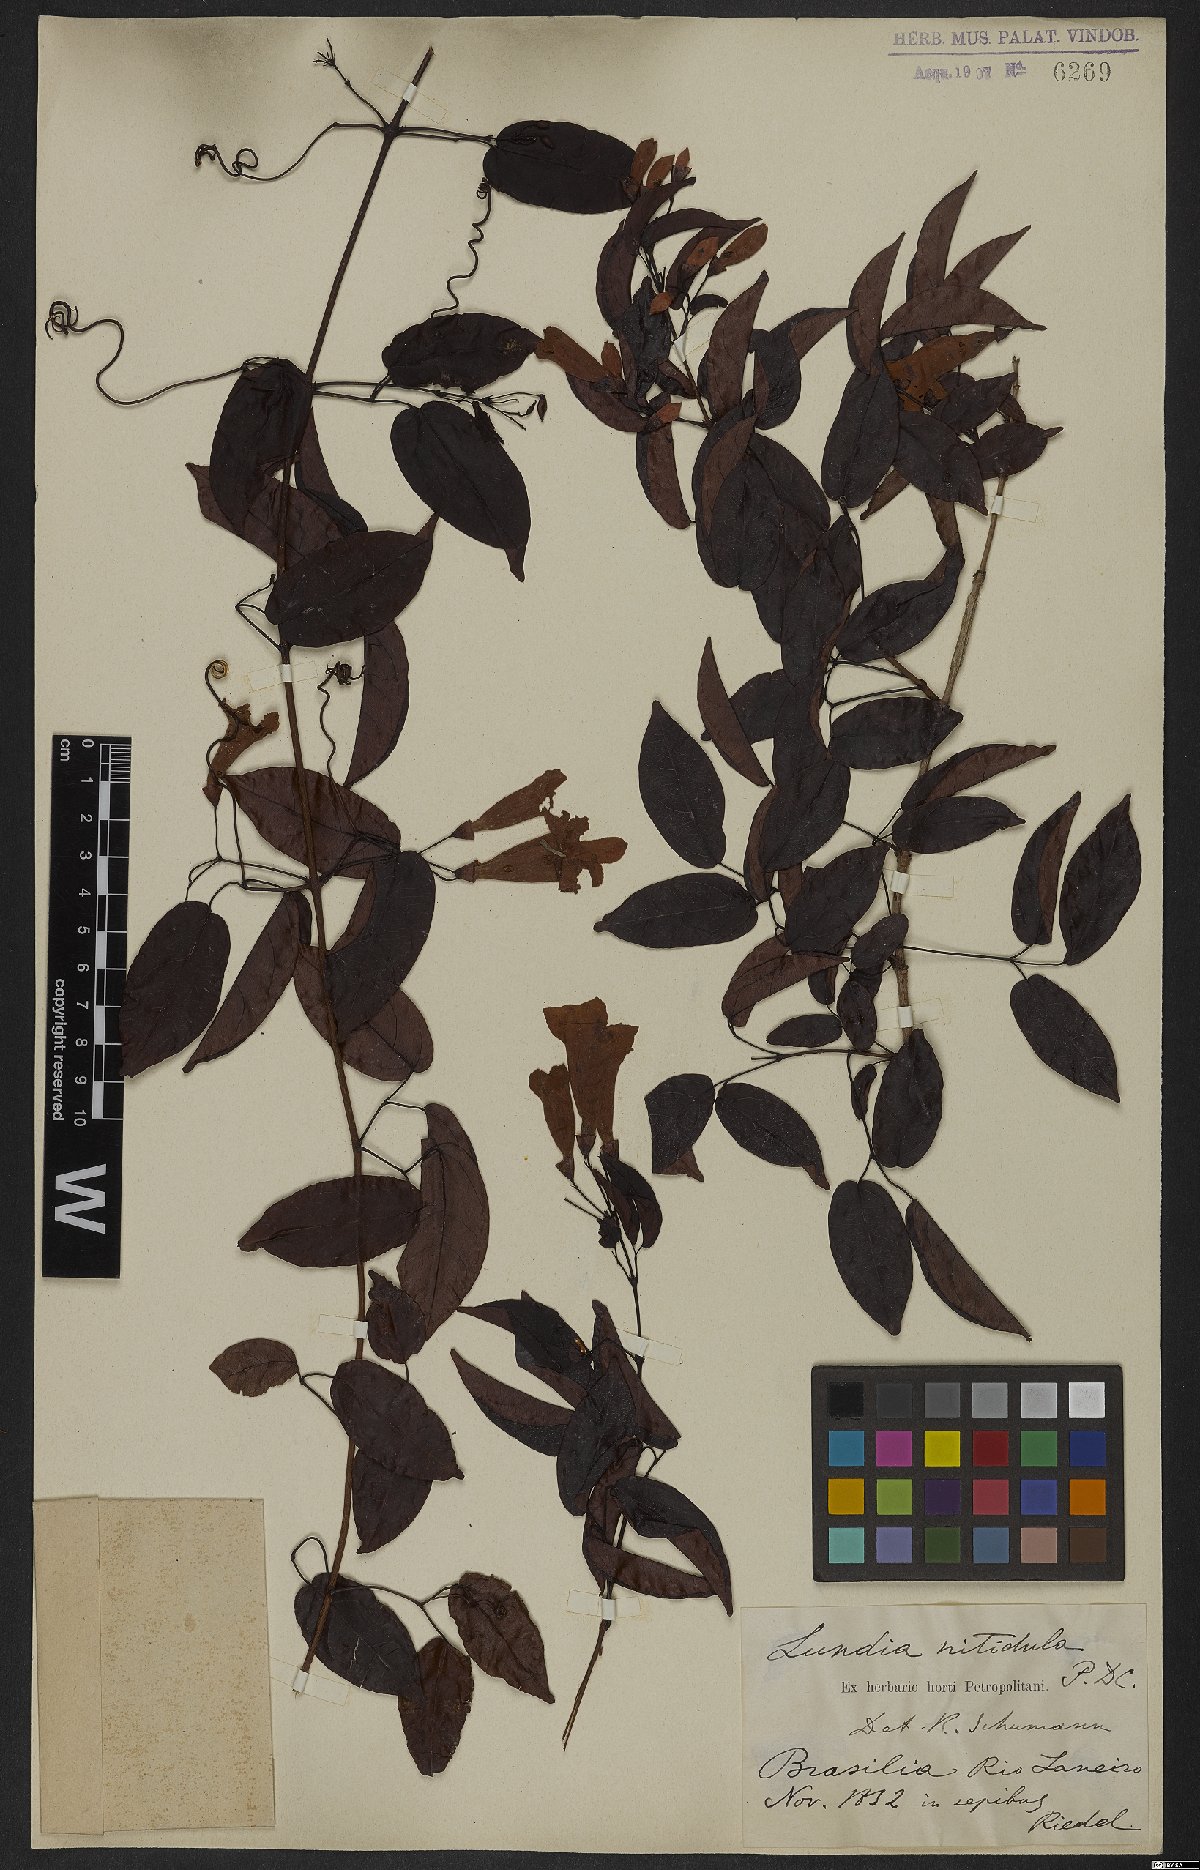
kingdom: Plantae
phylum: Tracheophyta
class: Magnoliopsida
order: Lamiales
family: Bignoniaceae
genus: Lundia
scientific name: Lundia nitidula
